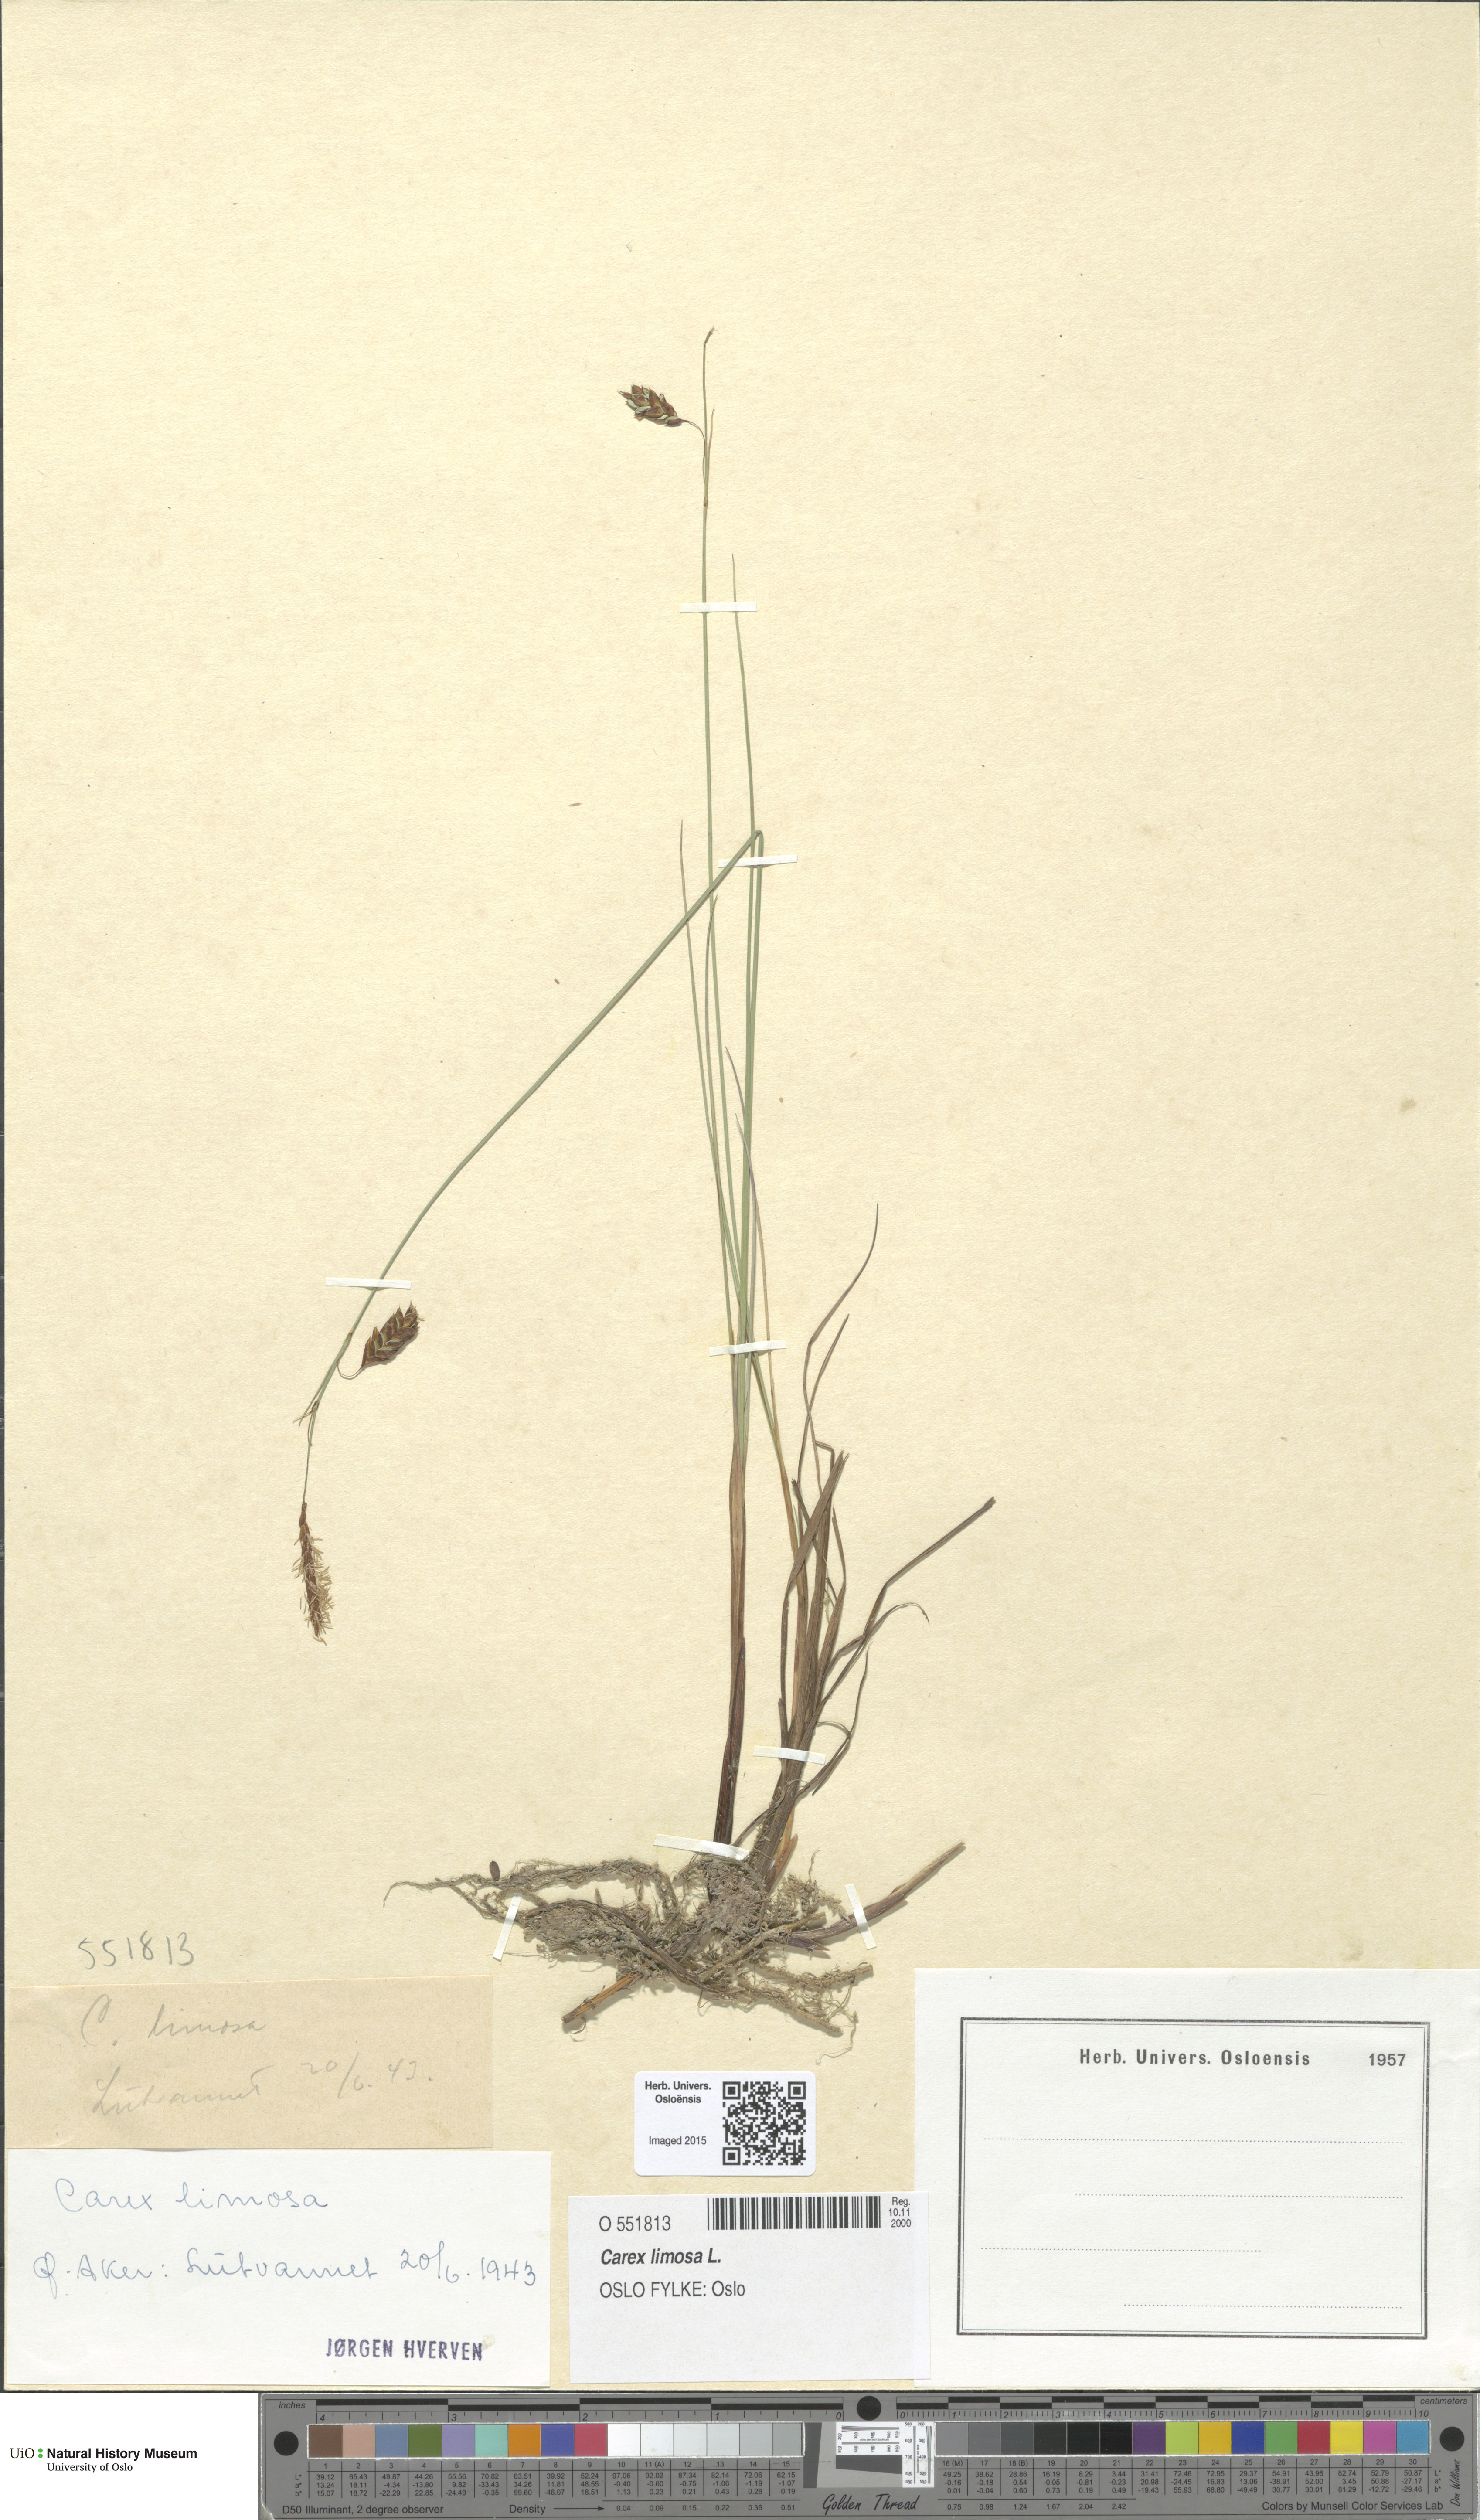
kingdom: Plantae
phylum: Tracheophyta
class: Liliopsida
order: Poales
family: Cyperaceae
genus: Carex
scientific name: Carex limosa
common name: Bog sedge
